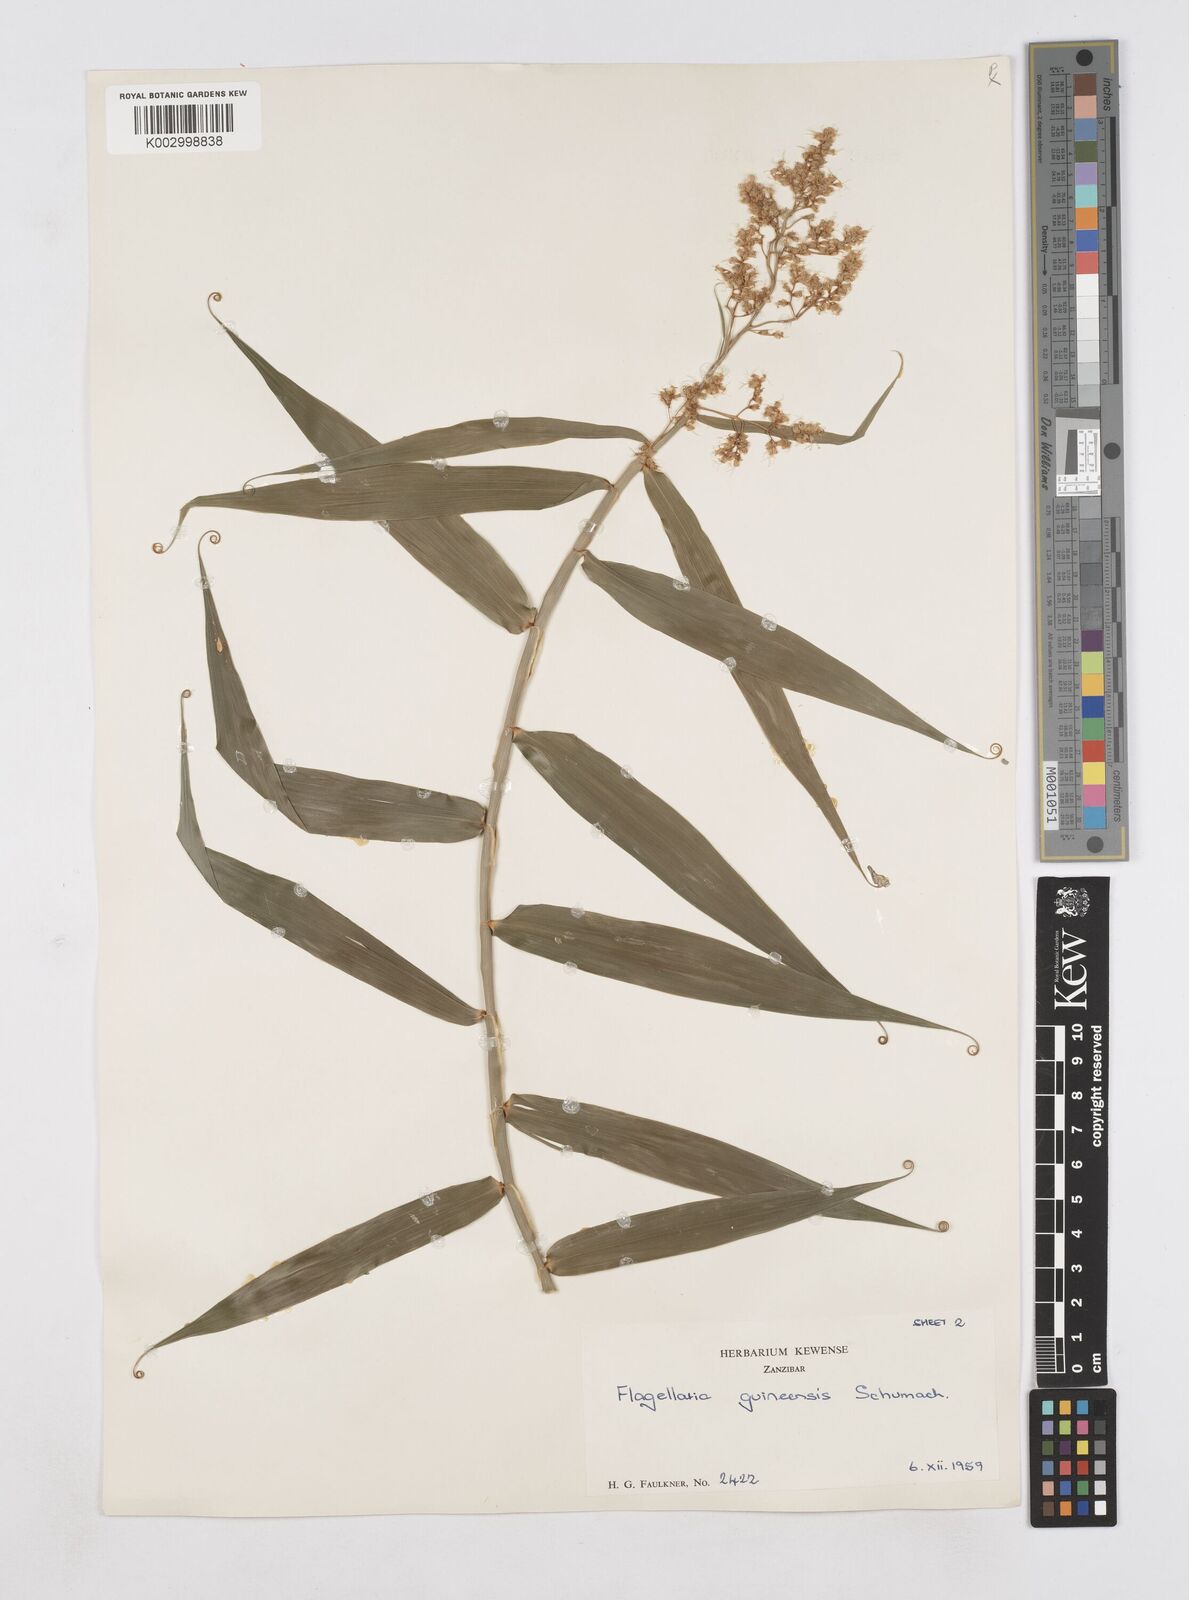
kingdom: Plantae
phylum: Tracheophyta
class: Liliopsida
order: Poales
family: Flagellariaceae
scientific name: Flagellariaceae
